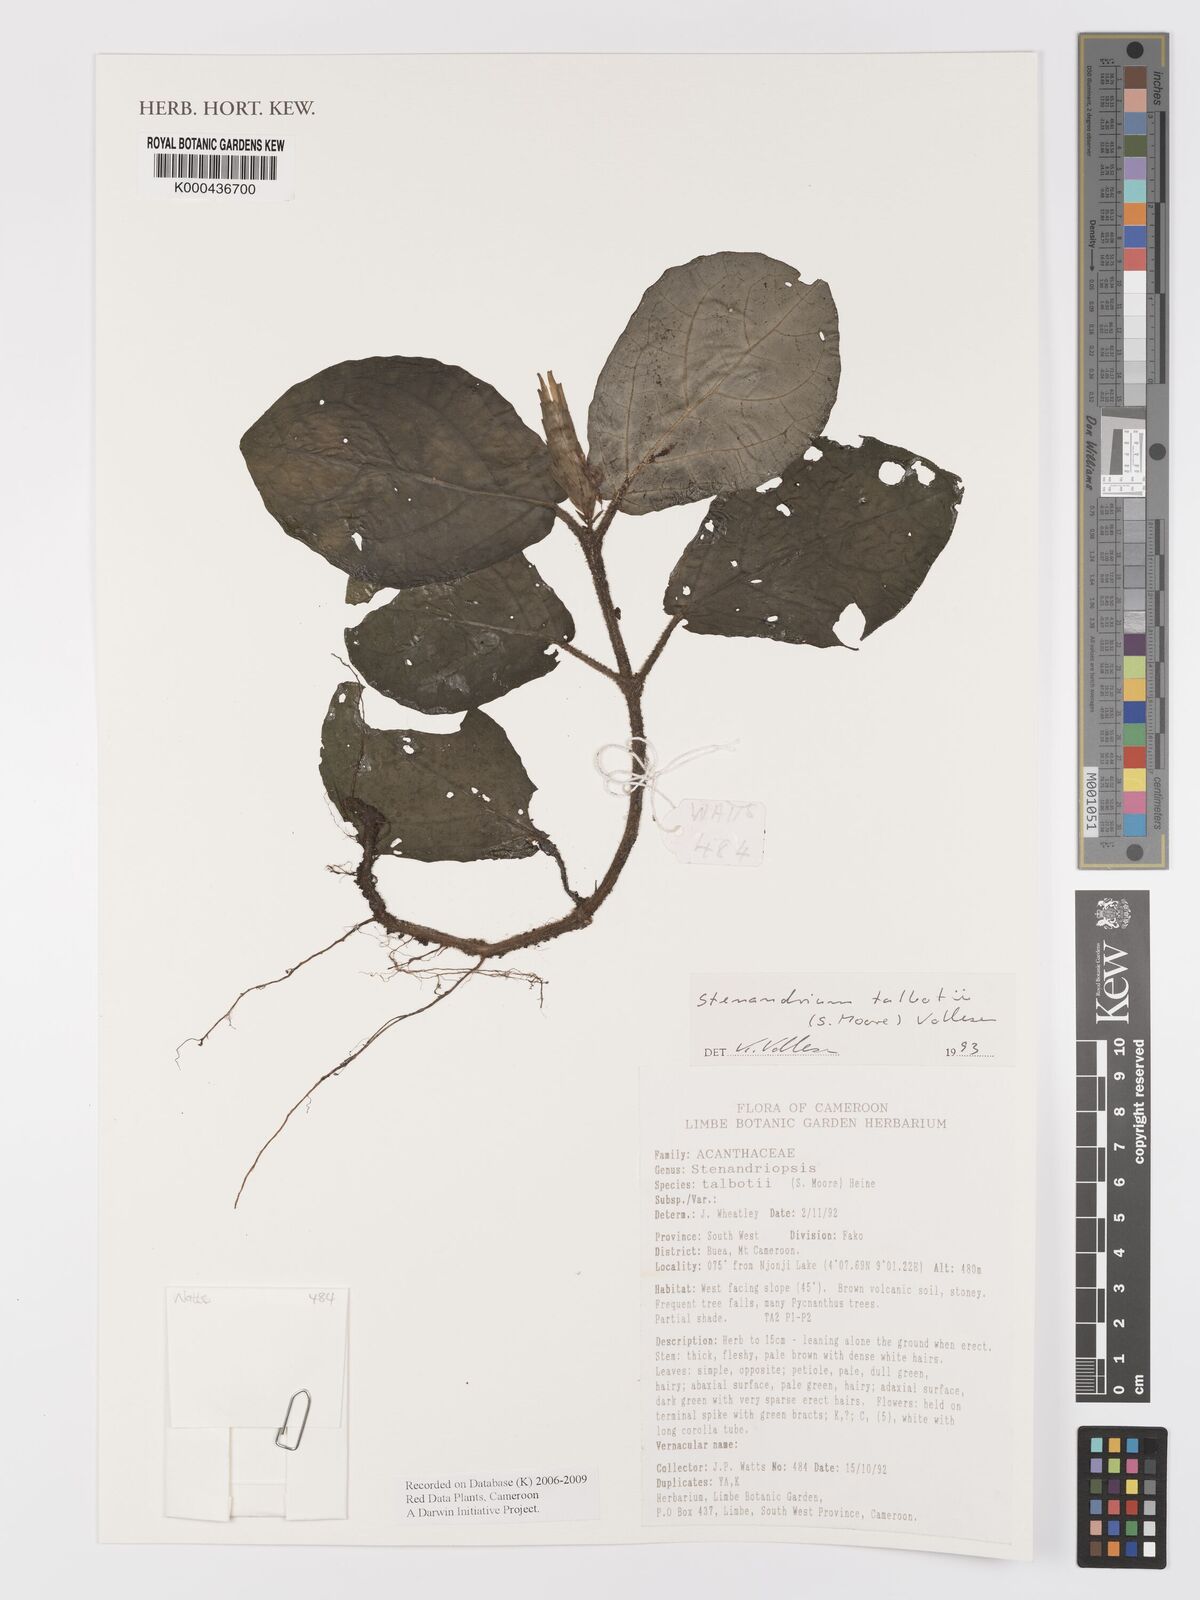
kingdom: Plantae
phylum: Tracheophyta
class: Magnoliopsida
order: Lamiales
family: Acanthaceae
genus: Stenandriopsis
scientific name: Stenandriopsis talbotii
